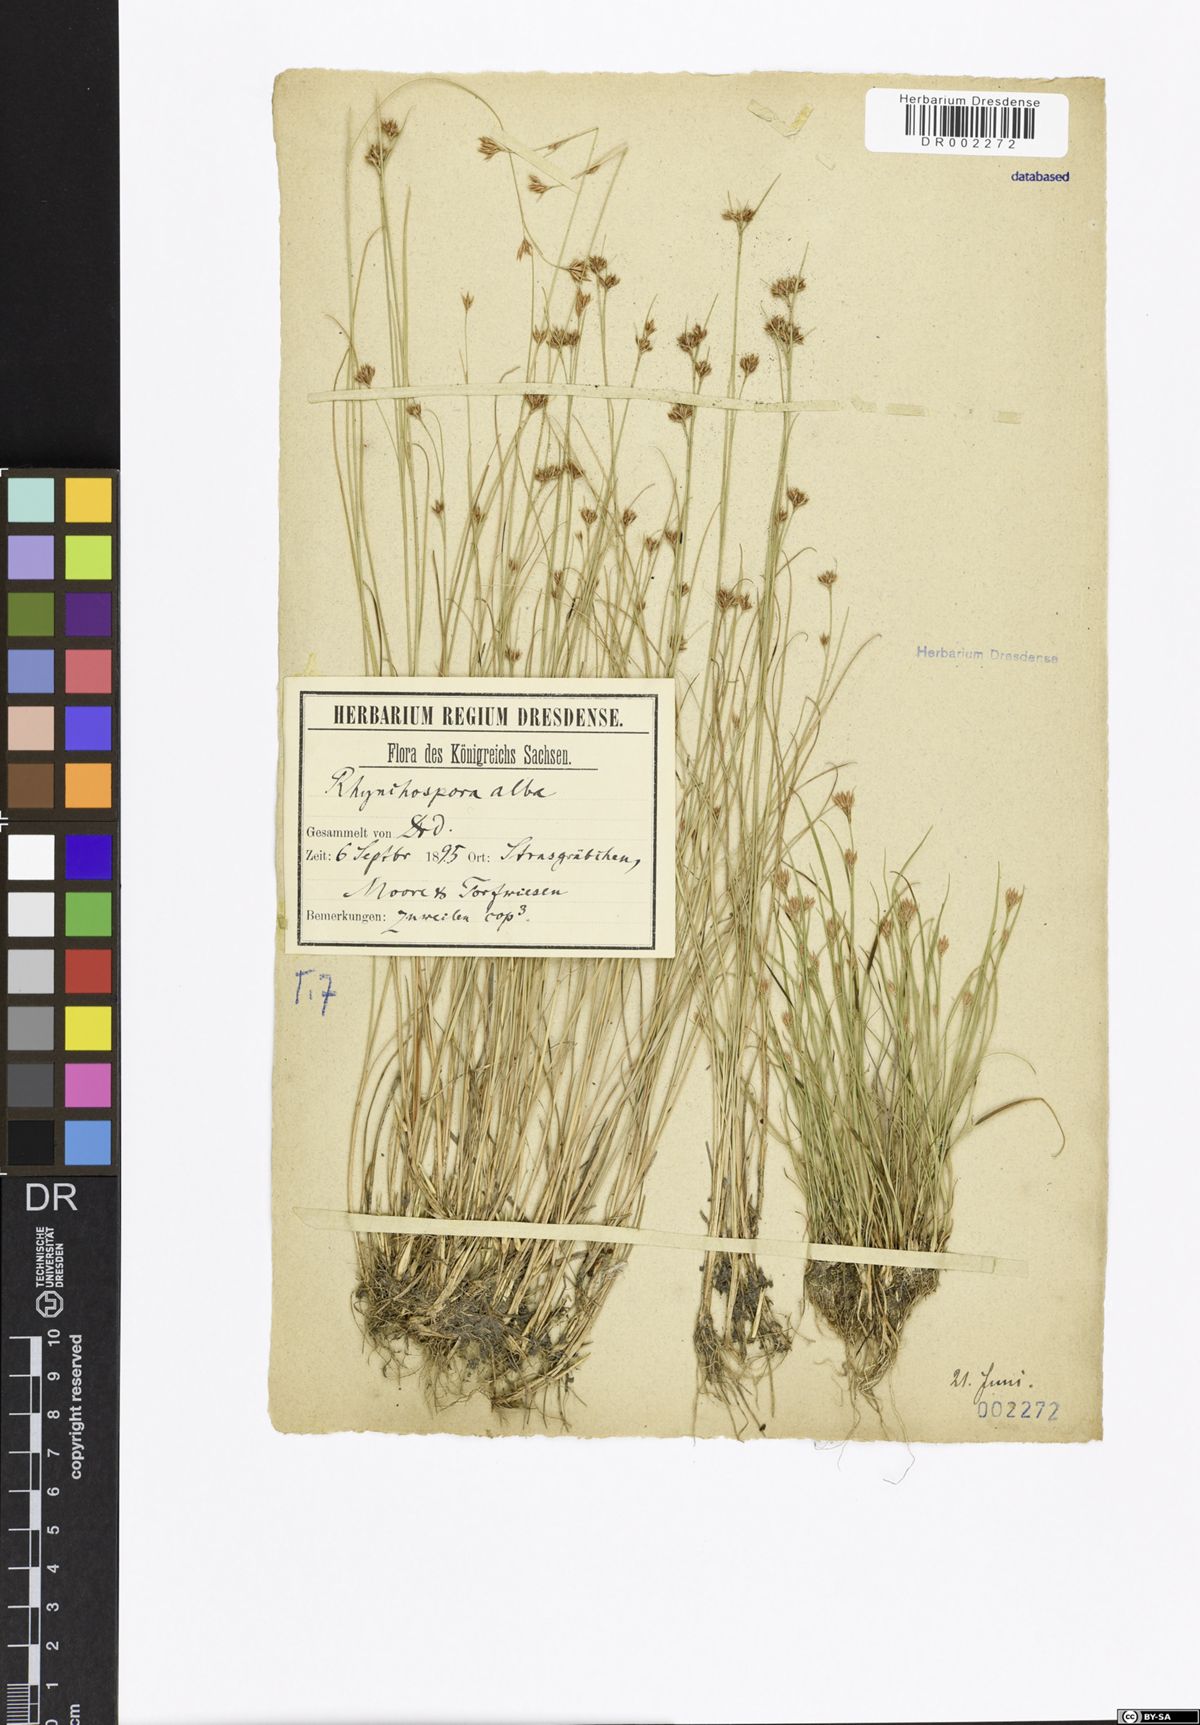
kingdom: Plantae
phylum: Tracheophyta
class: Liliopsida
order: Poales
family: Cyperaceae
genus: Rhynchospora
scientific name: Rhynchospora alba
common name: White beak-sedge
